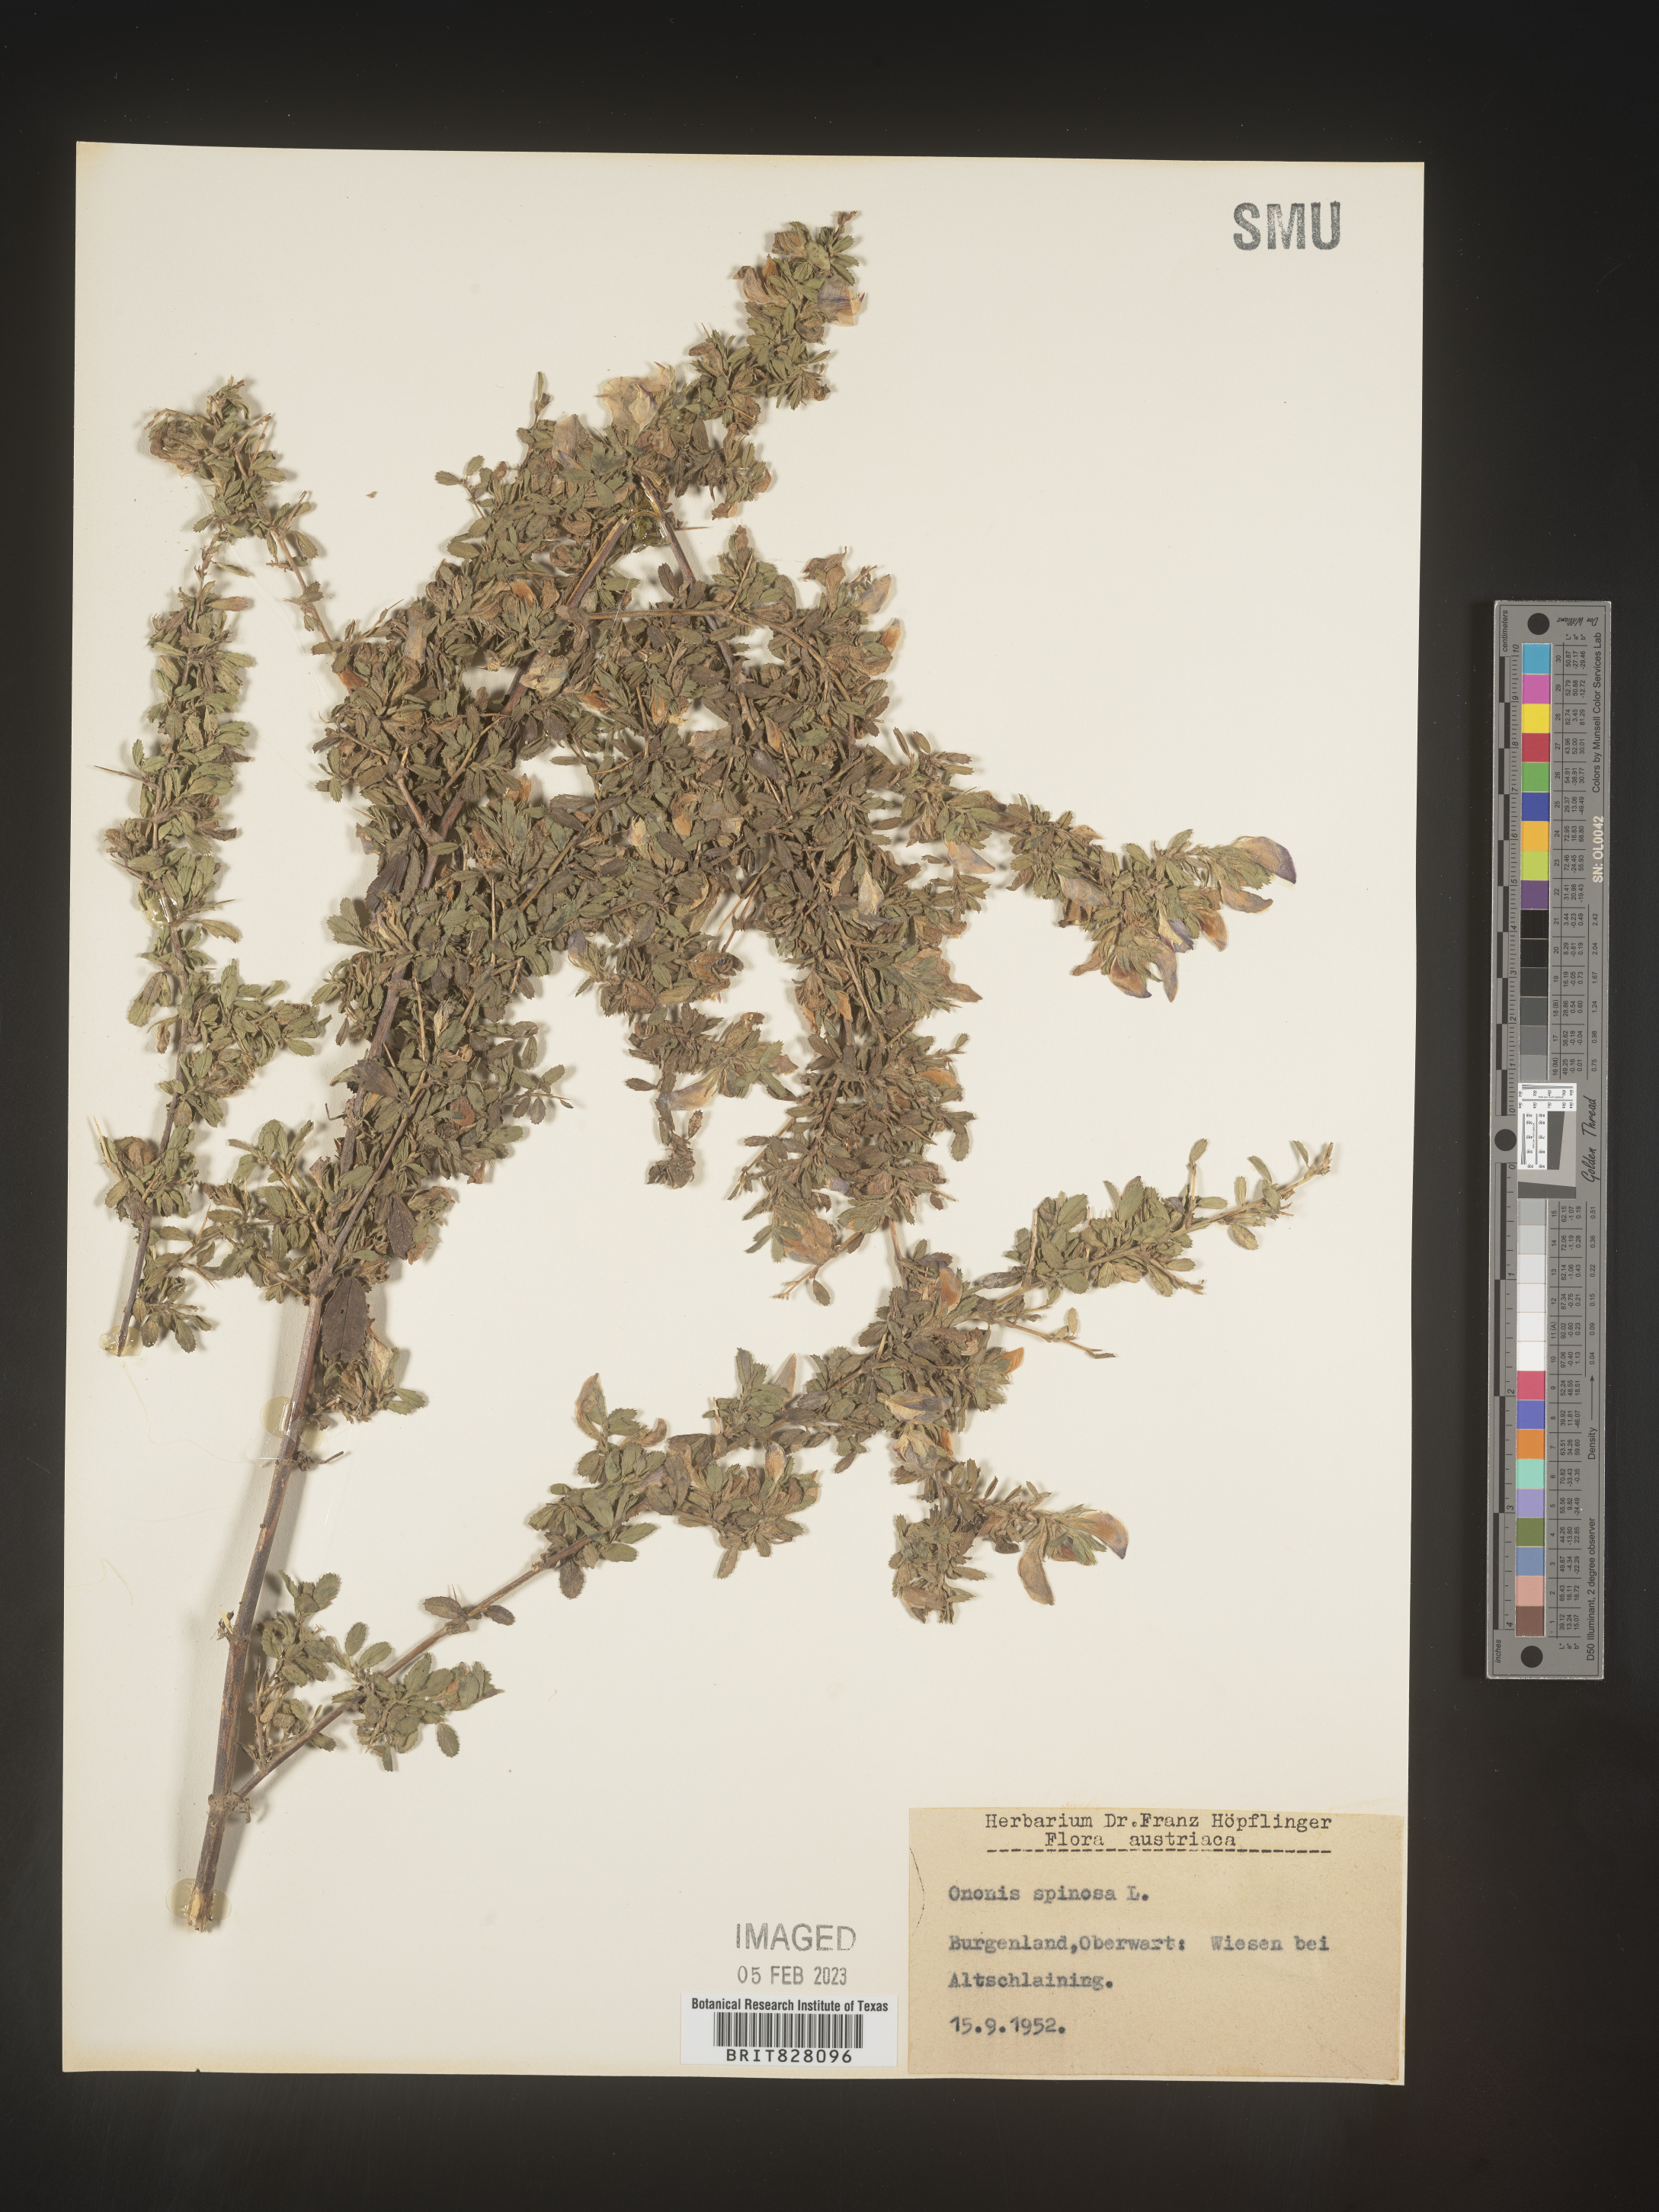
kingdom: Plantae
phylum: Tracheophyta
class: Magnoliopsida
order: Fabales
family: Fabaceae
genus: Ononis
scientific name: Ononis
